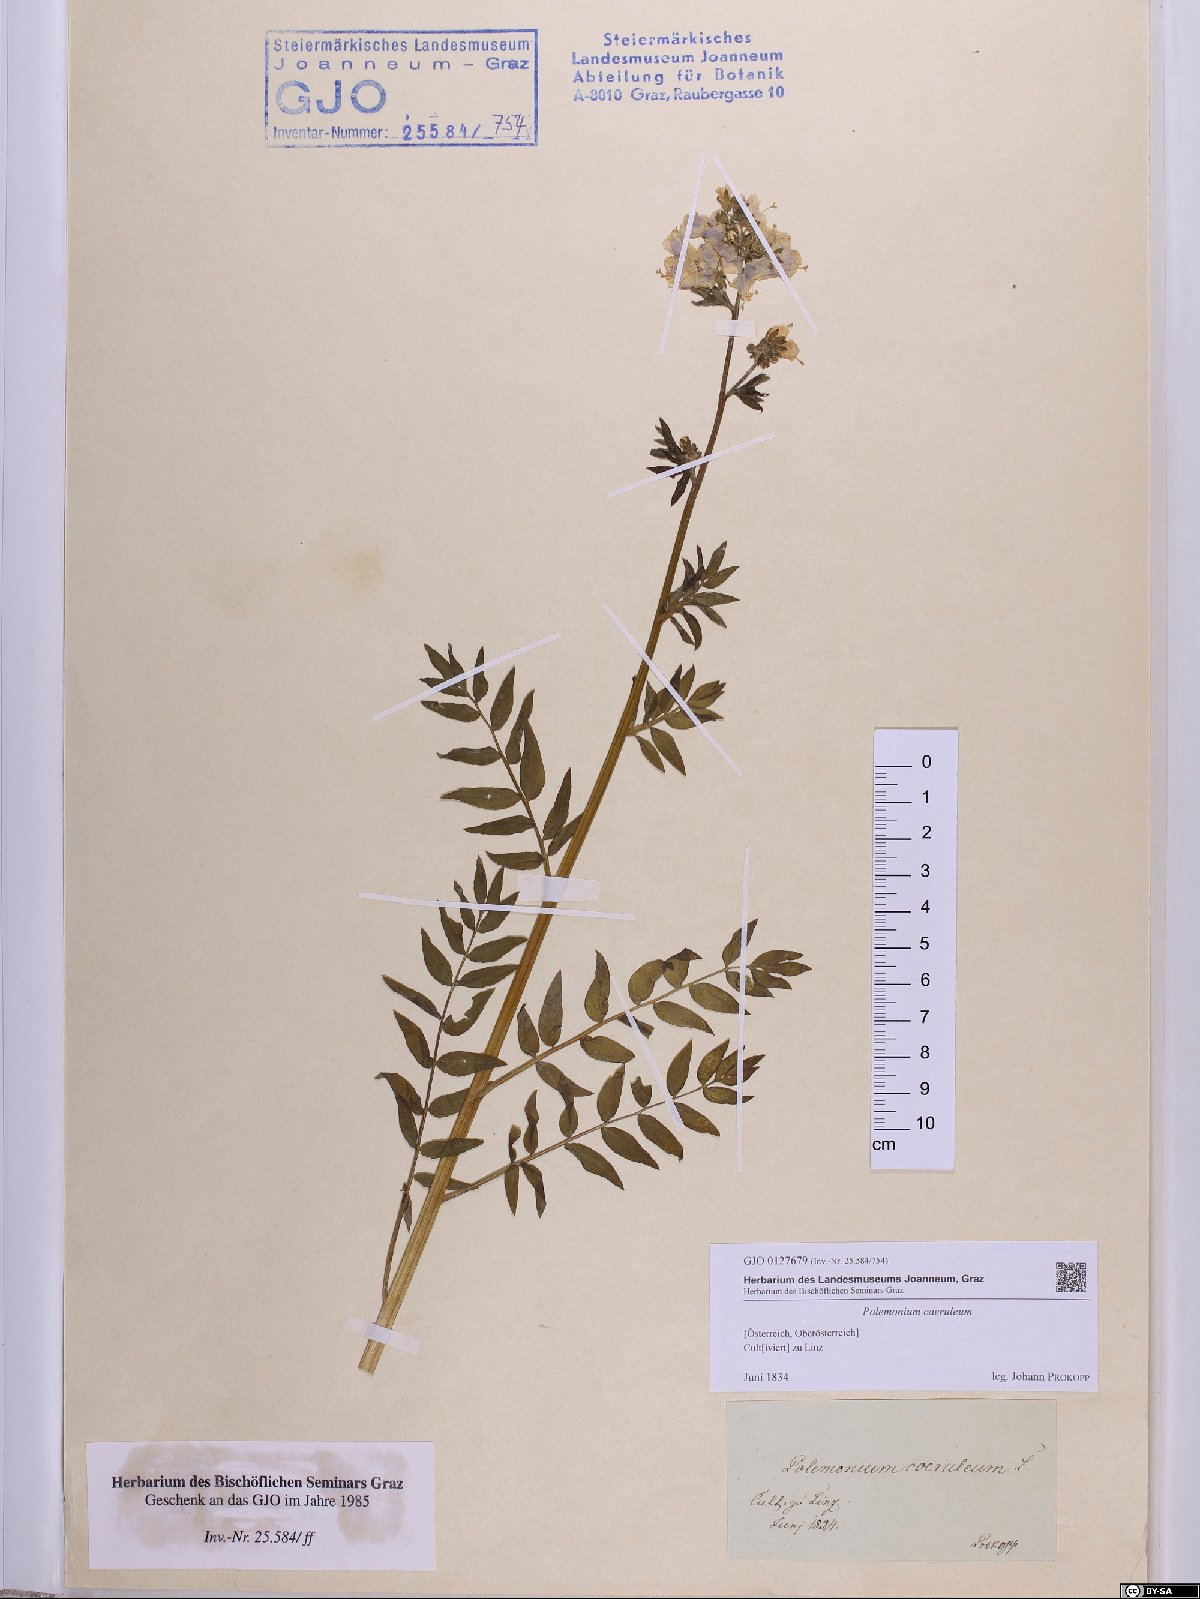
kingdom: Plantae
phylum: Tracheophyta
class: Magnoliopsida
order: Ericales
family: Polemoniaceae
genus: Polemonium
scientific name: Polemonium caeruleum
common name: Jacob's-ladder
